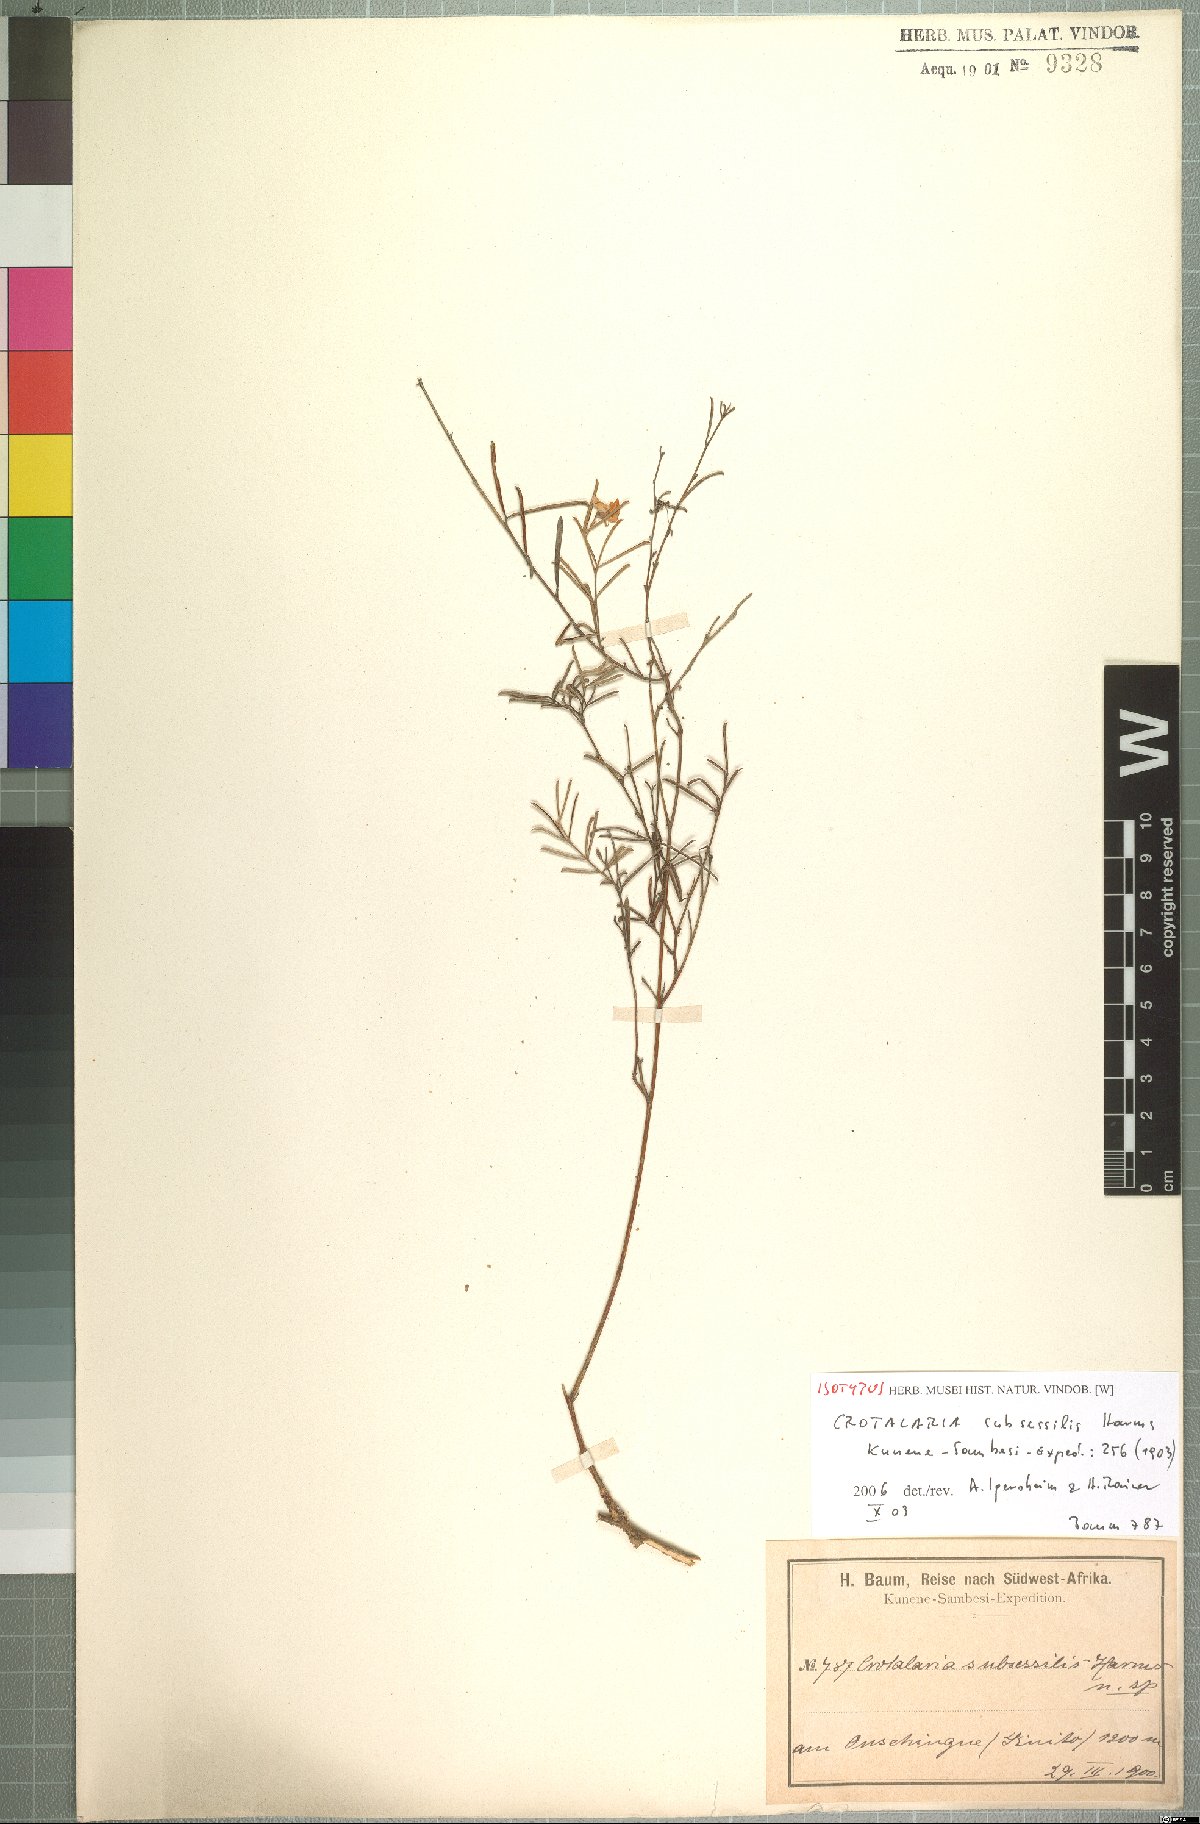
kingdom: Plantae
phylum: Tracheophyta
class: Magnoliopsida
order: Fabales
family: Fabaceae
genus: Crotalaria
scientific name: Crotalaria subsessilis
